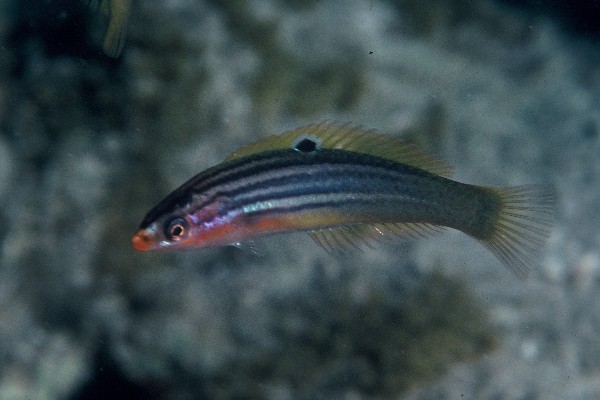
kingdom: Animalia
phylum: Chordata
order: Perciformes
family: Labridae
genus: Minilabrus
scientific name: Minilabrus striatus
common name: Minute wrasse
